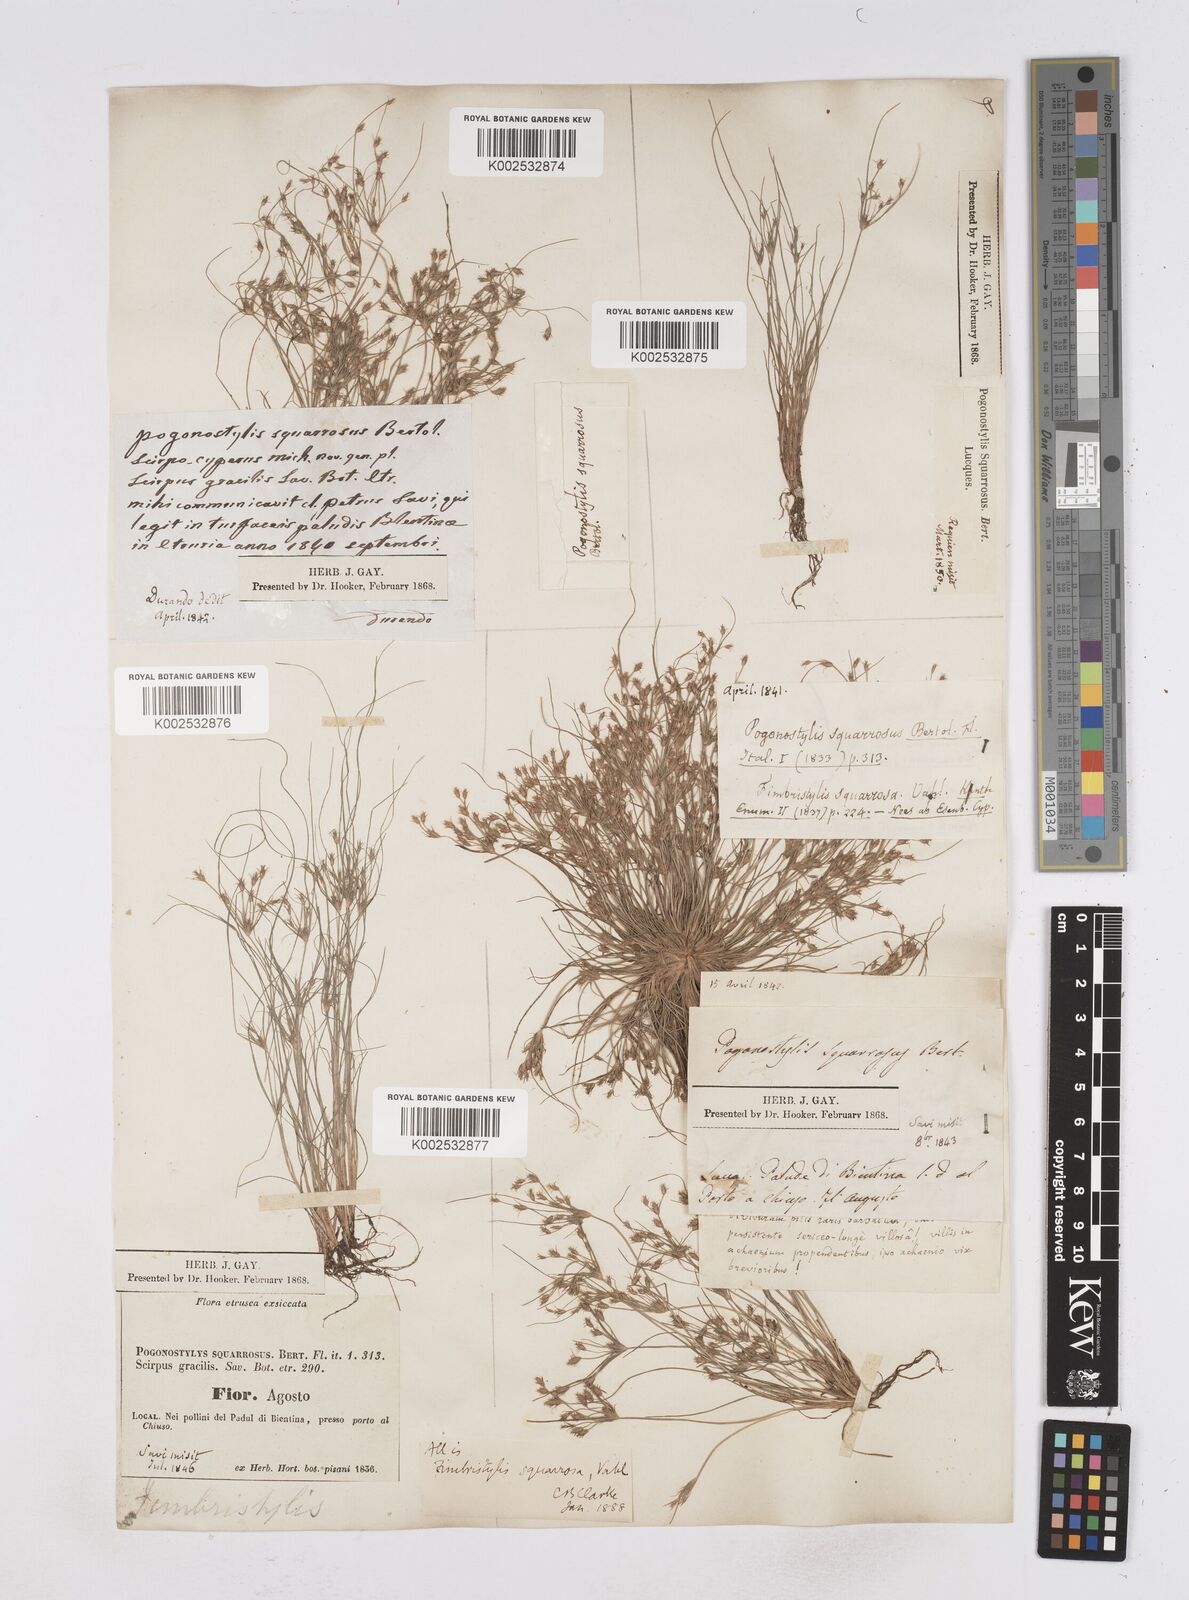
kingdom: Plantae
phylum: Tracheophyta
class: Liliopsida
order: Poales
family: Cyperaceae
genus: Fimbristylis
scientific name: Fimbristylis squarrosa
